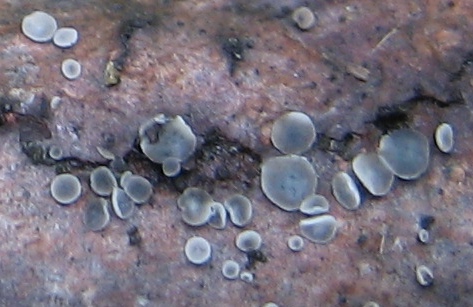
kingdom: Fungi
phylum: Ascomycota
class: Leotiomycetes
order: Helotiales
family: Mollisiaceae
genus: Mollisia
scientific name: Mollisia
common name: gråskive
